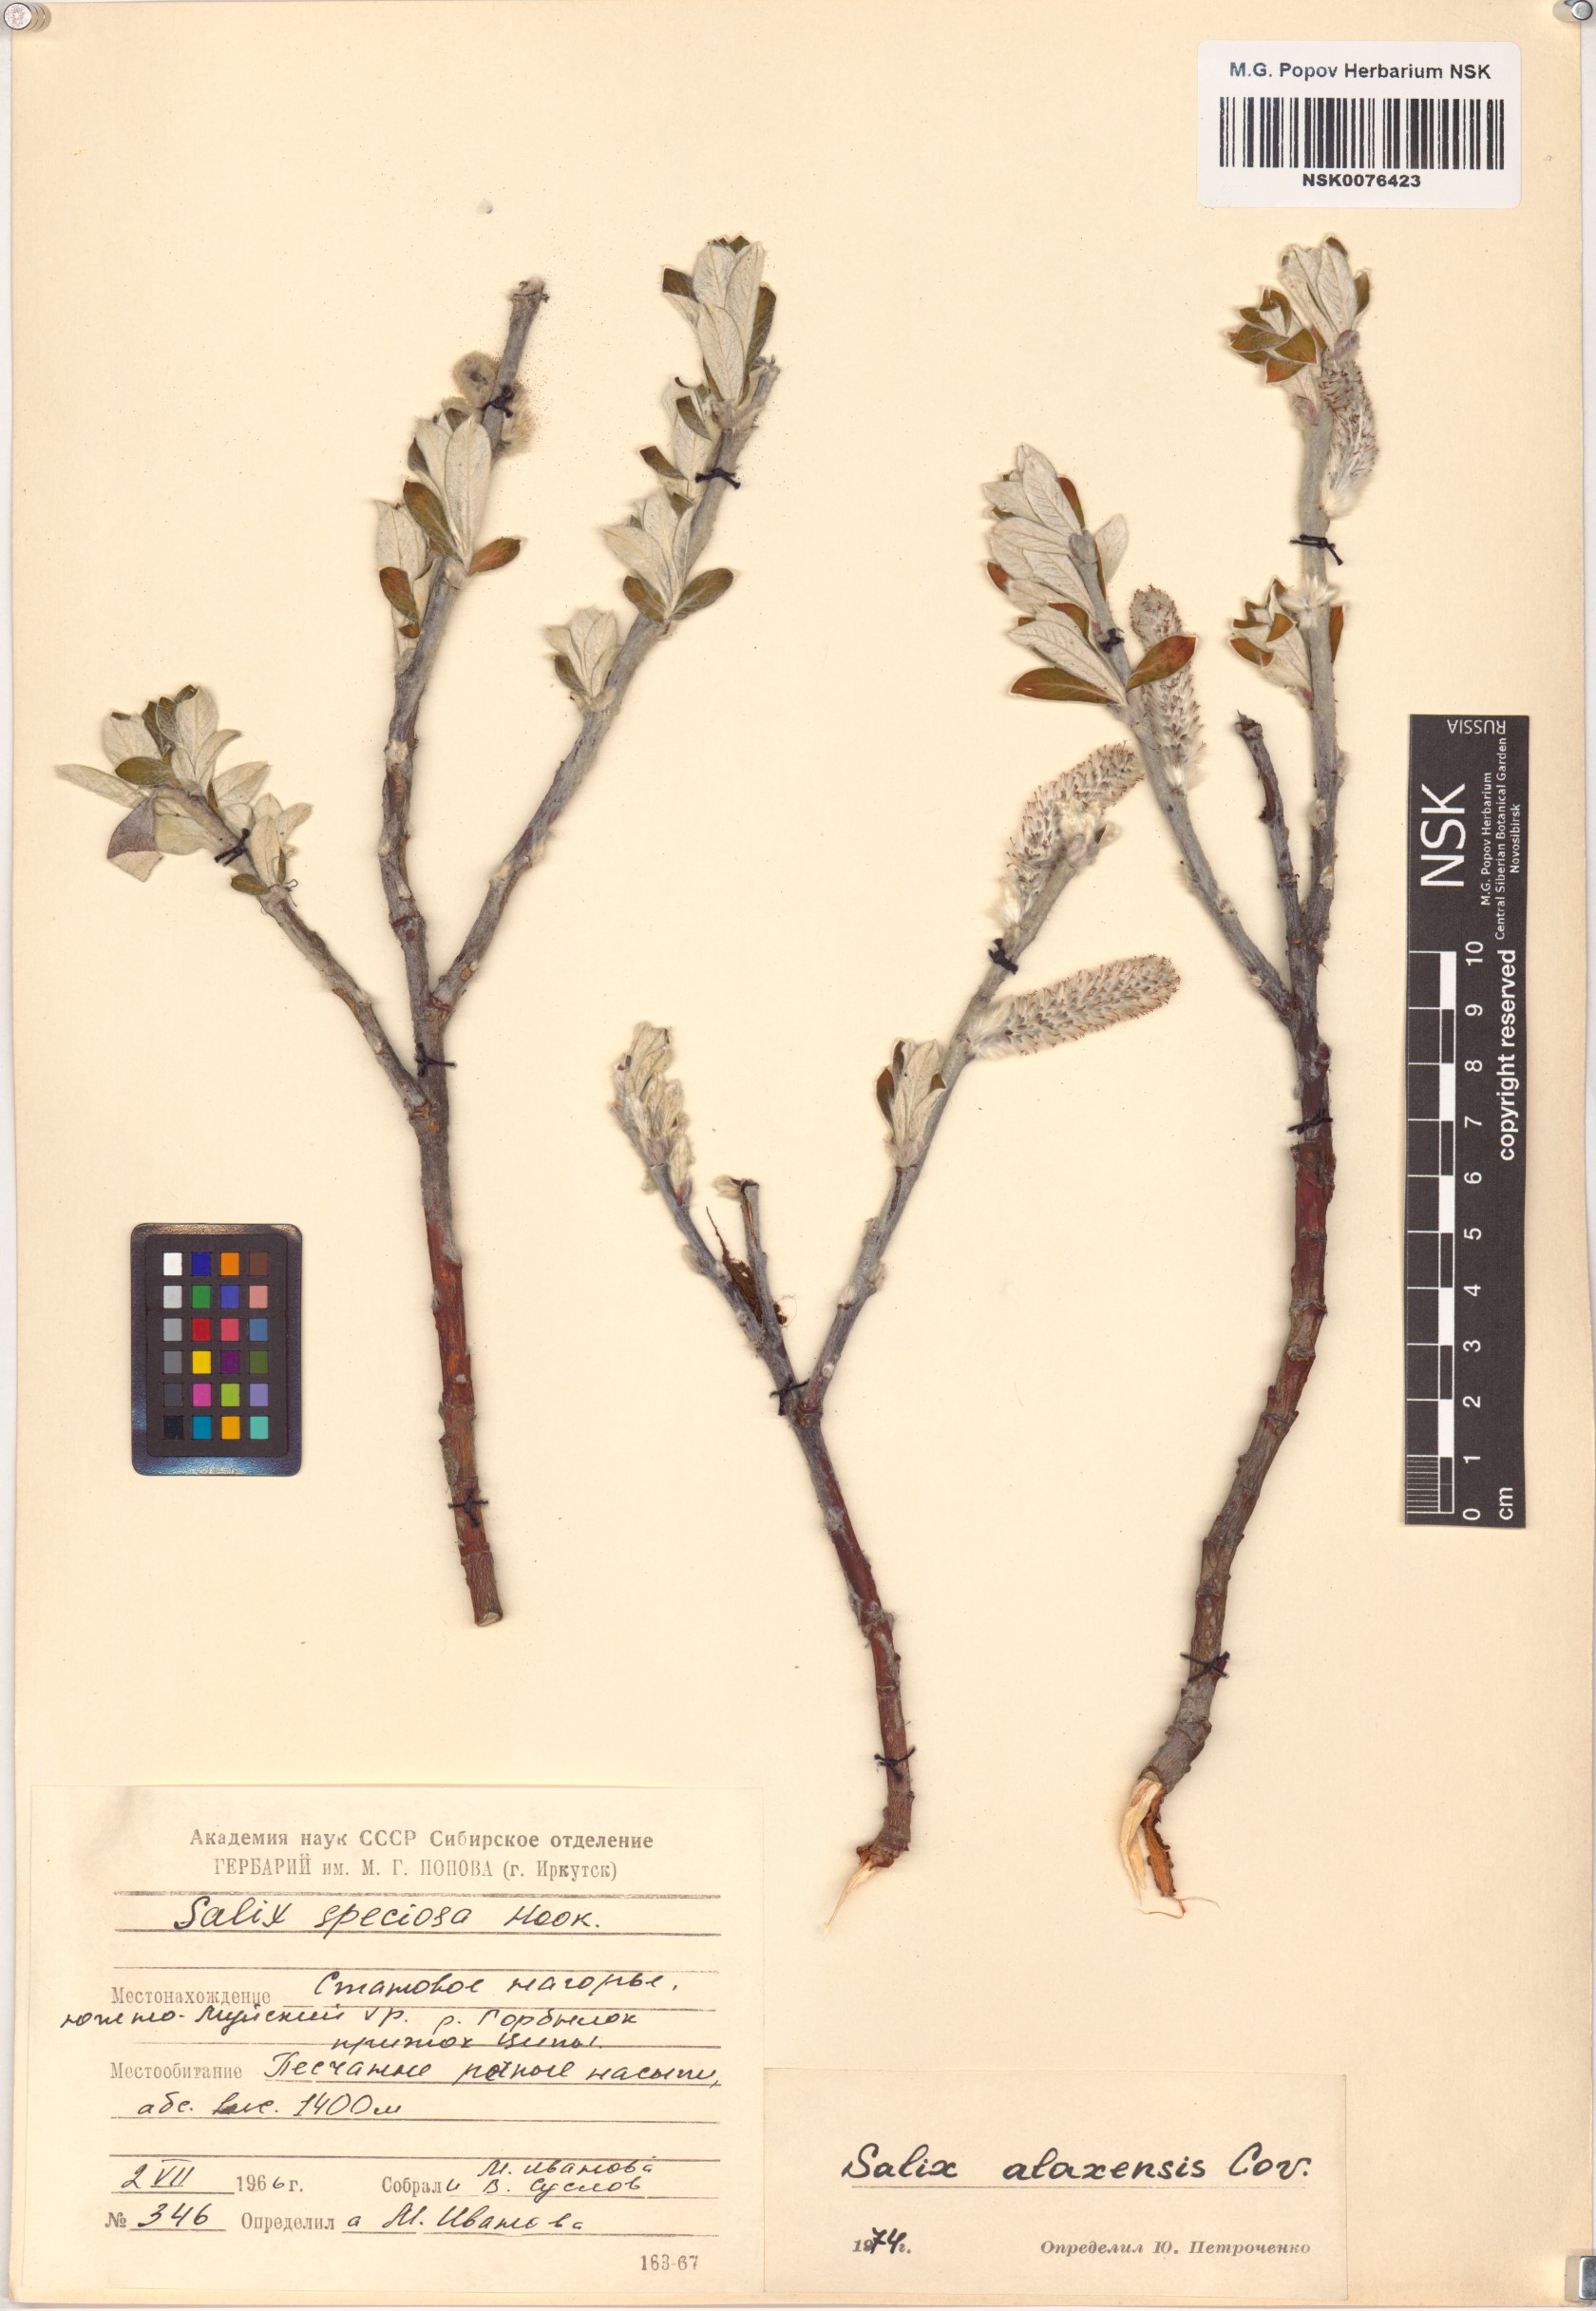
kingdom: Plantae
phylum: Tracheophyta
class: Magnoliopsida
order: Malpighiales
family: Salicaceae
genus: Salix
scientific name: Salix alaxensis
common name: Feltleaf willow
